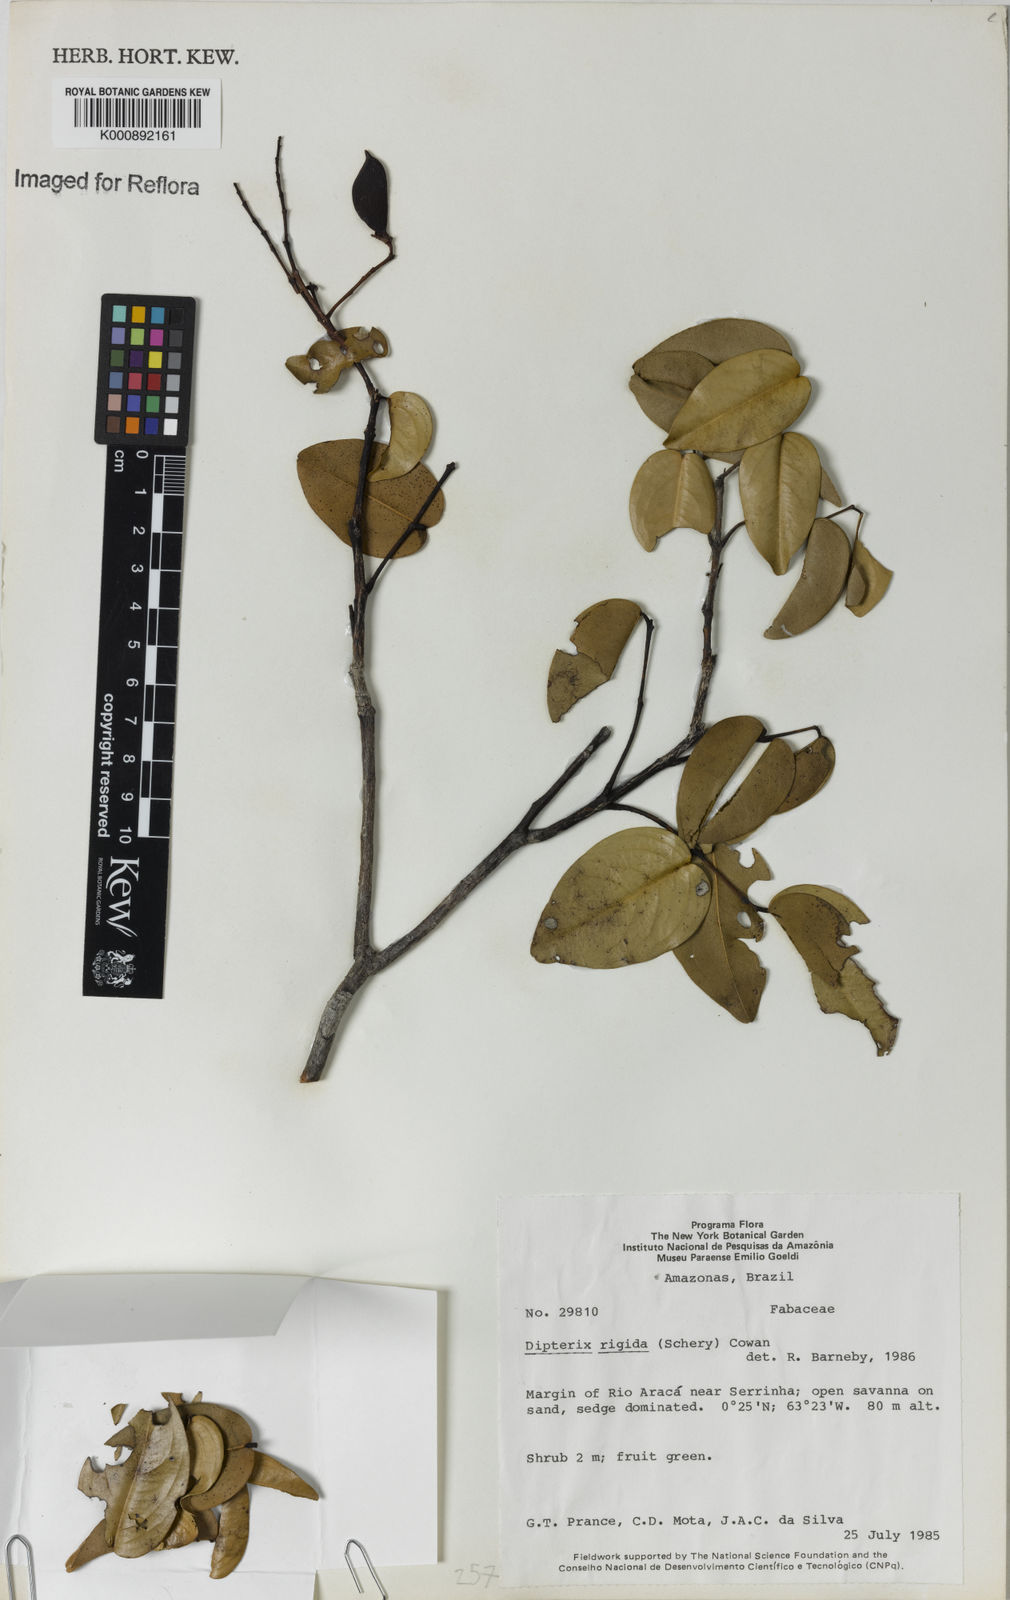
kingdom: Plantae
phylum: Tracheophyta
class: Magnoliopsida
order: Fabales
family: Fabaceae
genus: Taralea
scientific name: Taralea cordata
